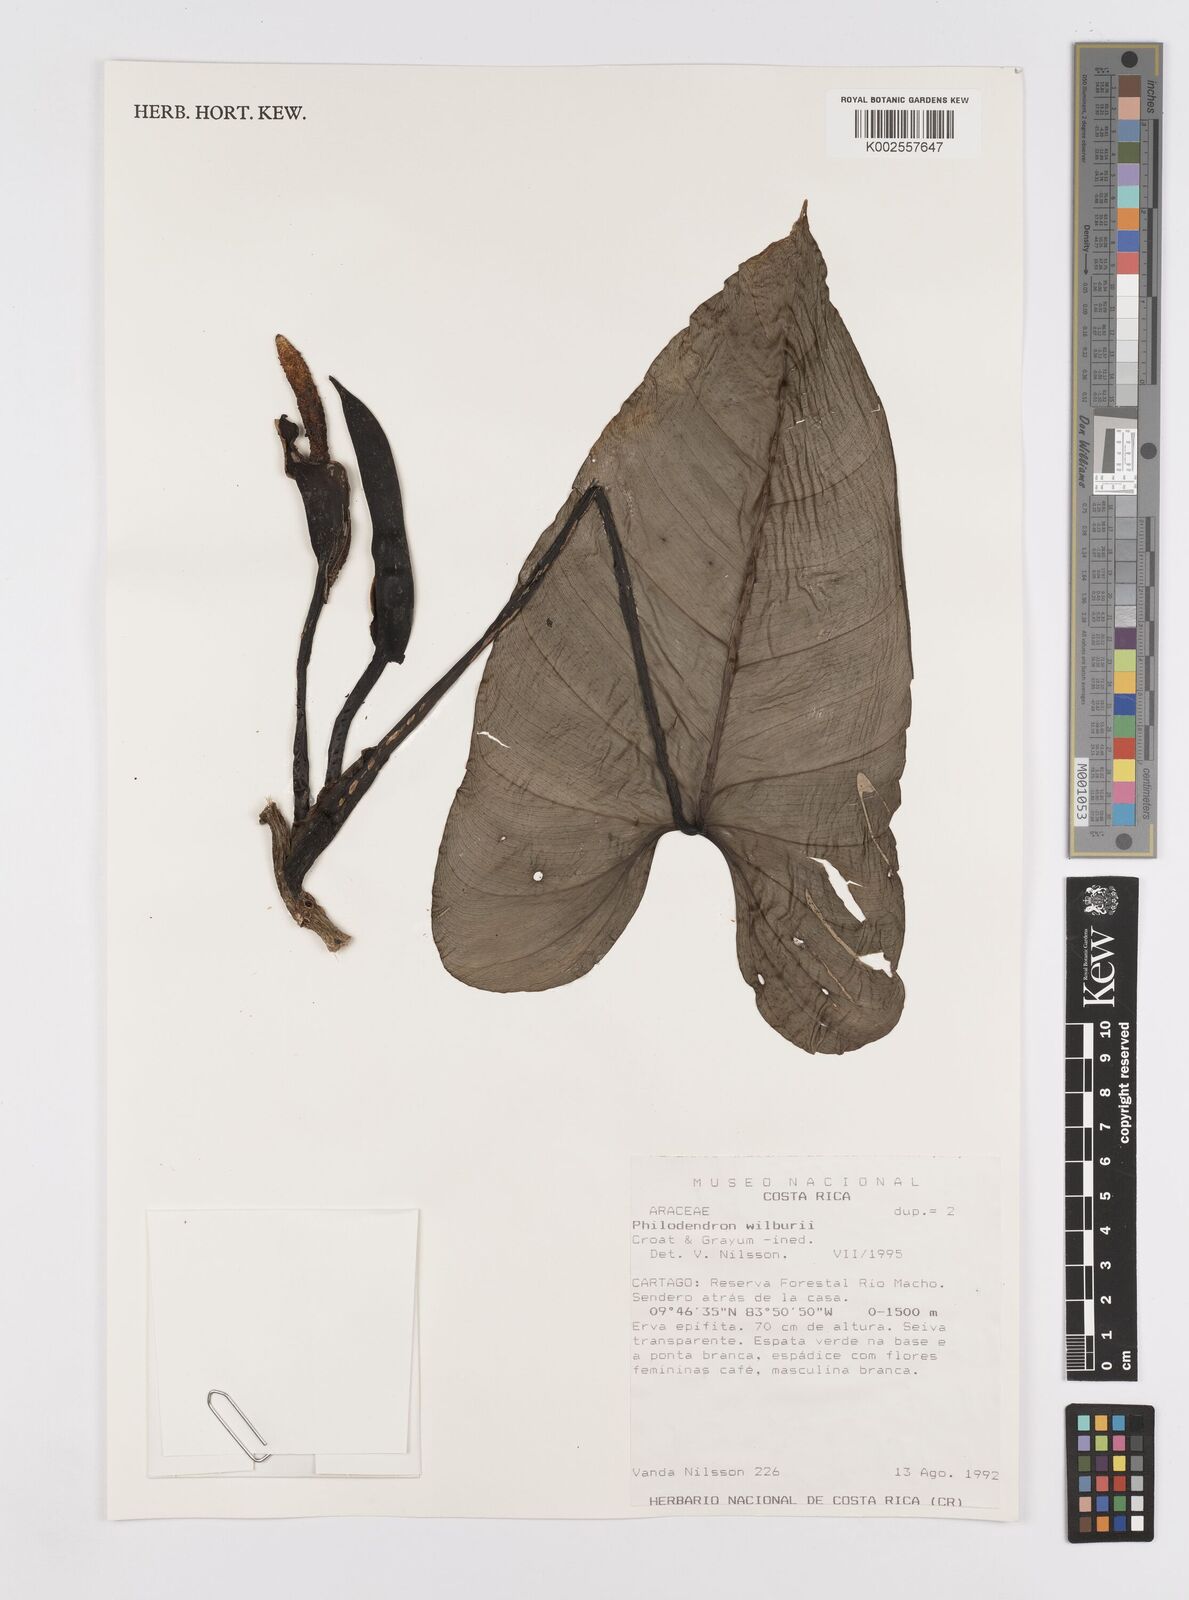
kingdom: Plantae
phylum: Tracheophyta
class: Liliopsida
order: Alismatales
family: Araceae
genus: Philodendron
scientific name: Philodendron wilburii
